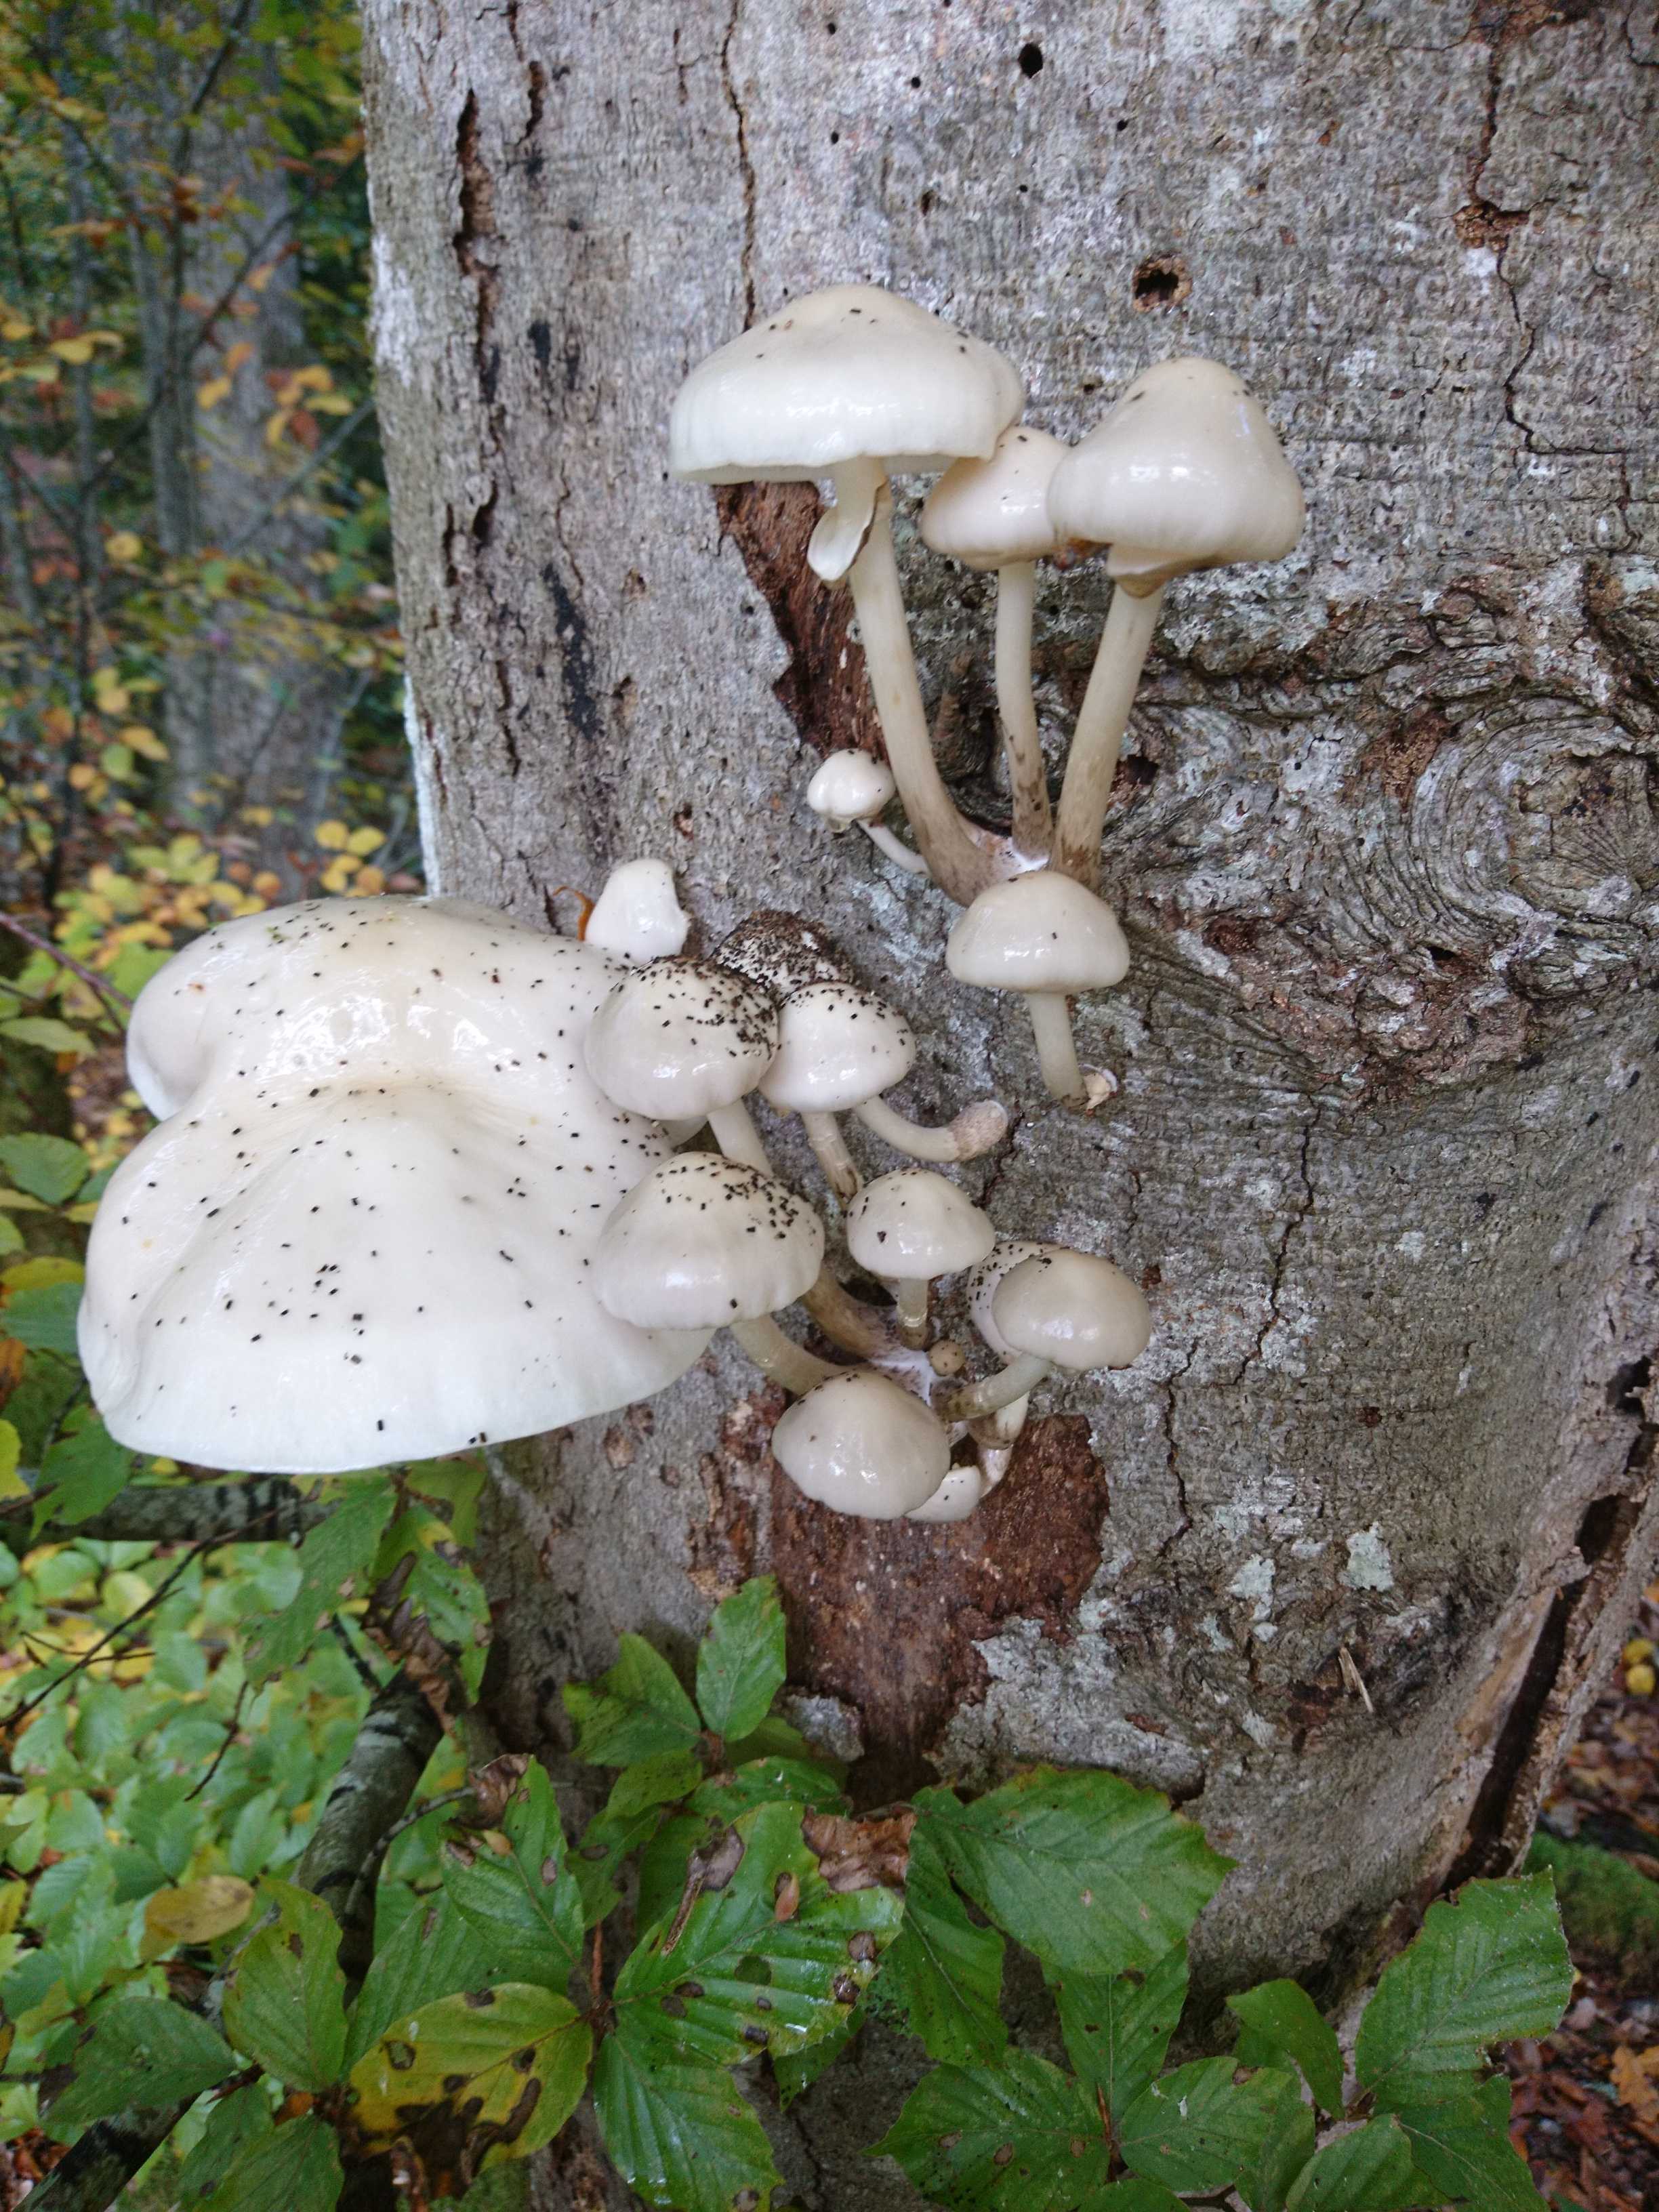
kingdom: Fungi
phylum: Basidiomycota
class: Agaricomycetes
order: Agaricales
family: Physalacriaceae
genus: Mucidula
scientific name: Mucidula mucida
